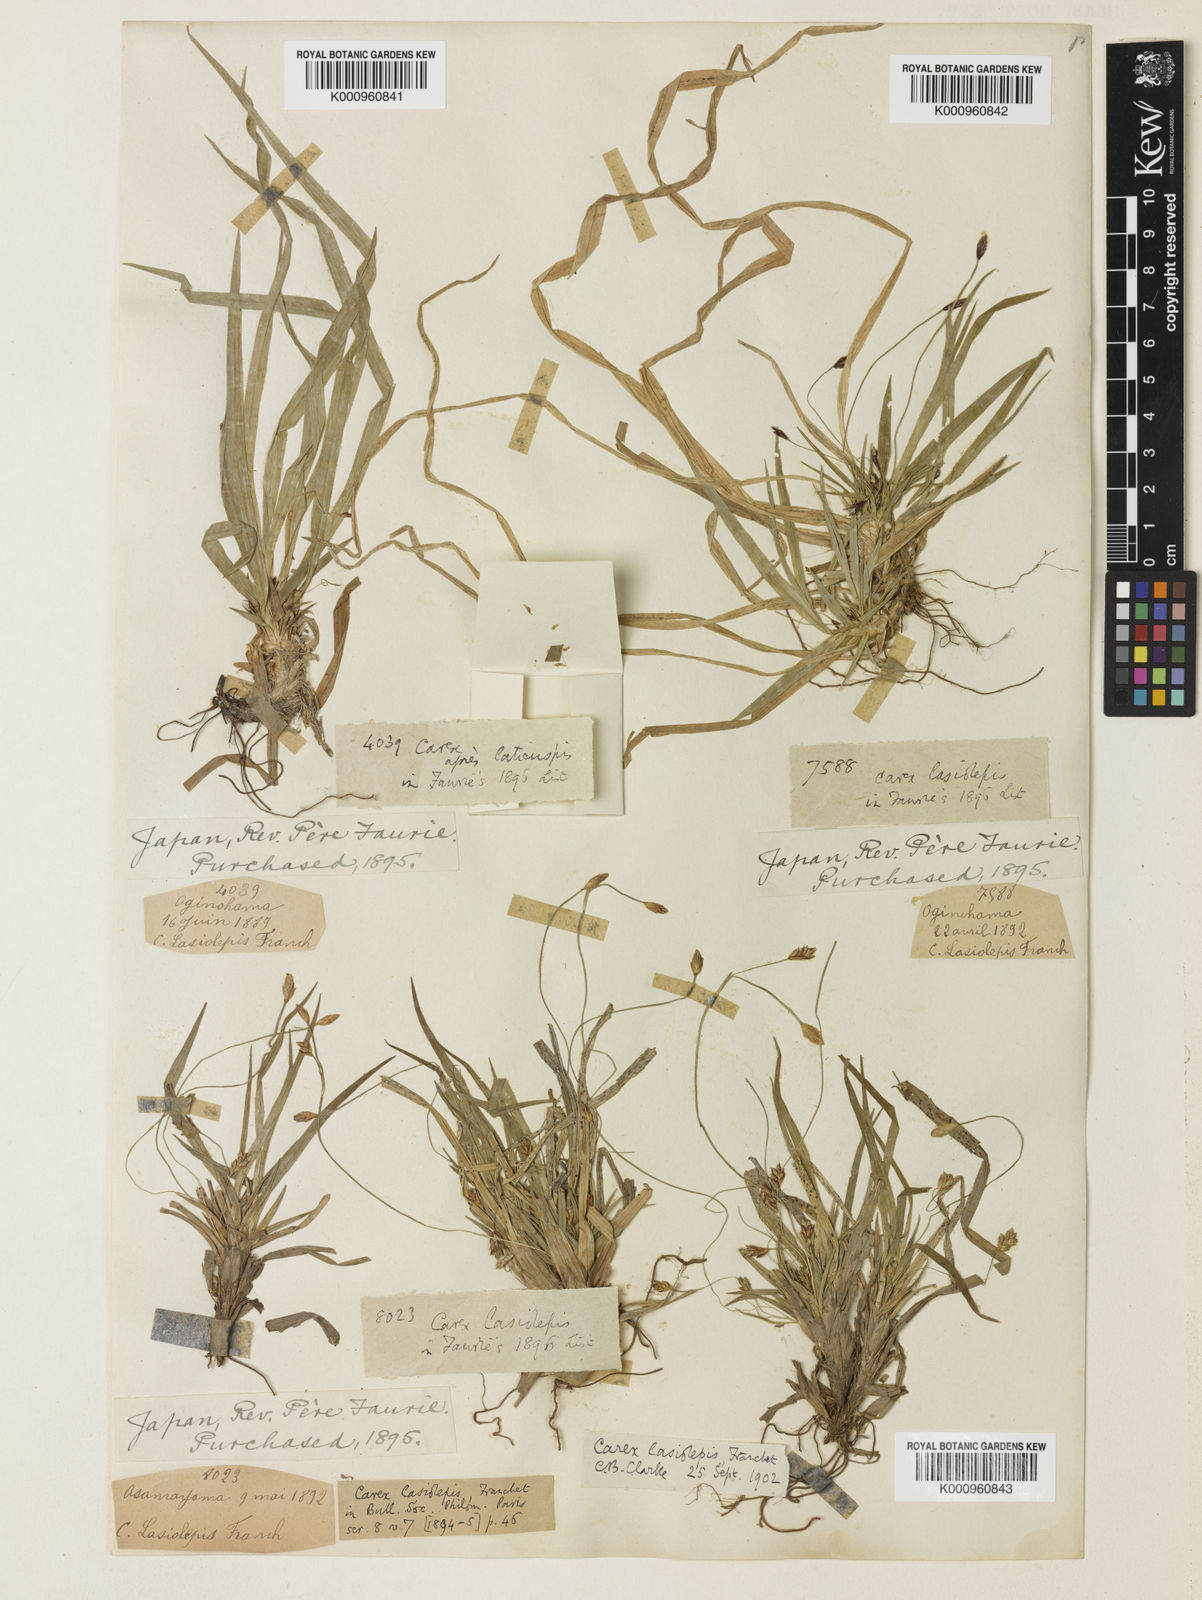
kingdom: Plantae
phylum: Tracheophyta
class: Liliopsida
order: Poales
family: Cyperaceae
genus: Carex
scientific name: Carex lasiolepis
